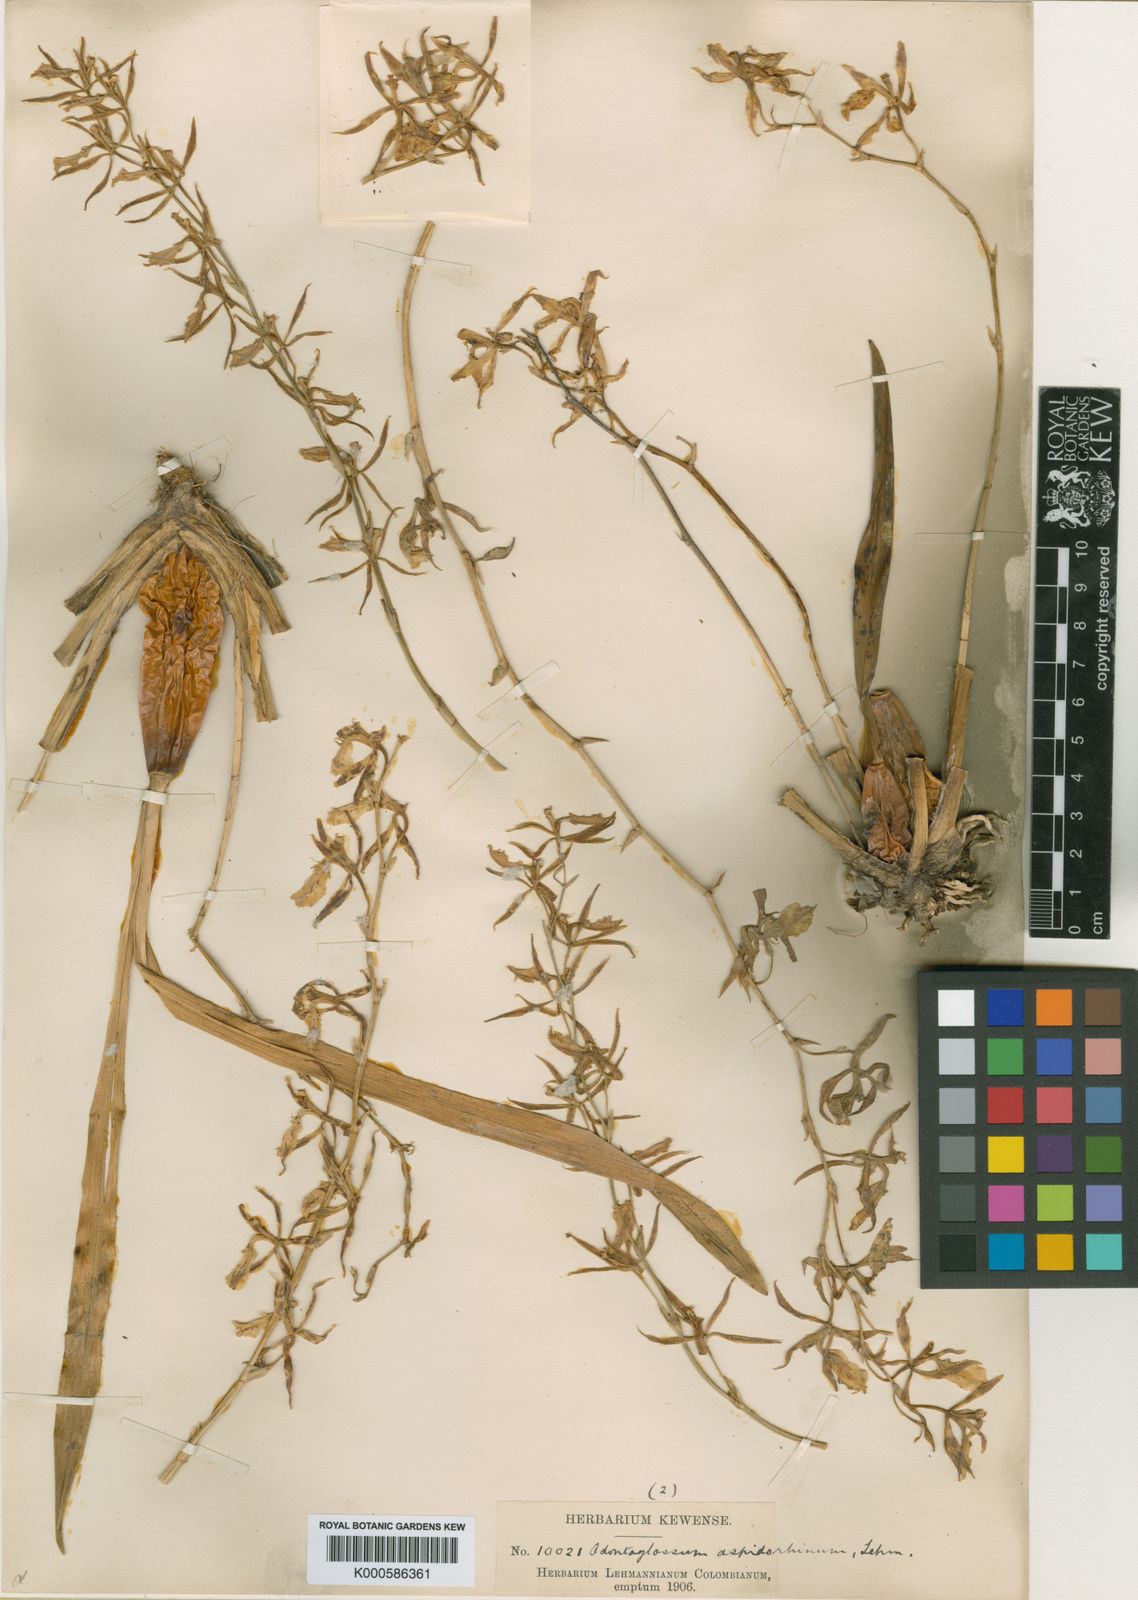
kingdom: Plantae
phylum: Tracheophyta
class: Liliopsida
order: Asparagales
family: Orchidaceae
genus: Oncidium
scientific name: Oncidium aspidorhinum
